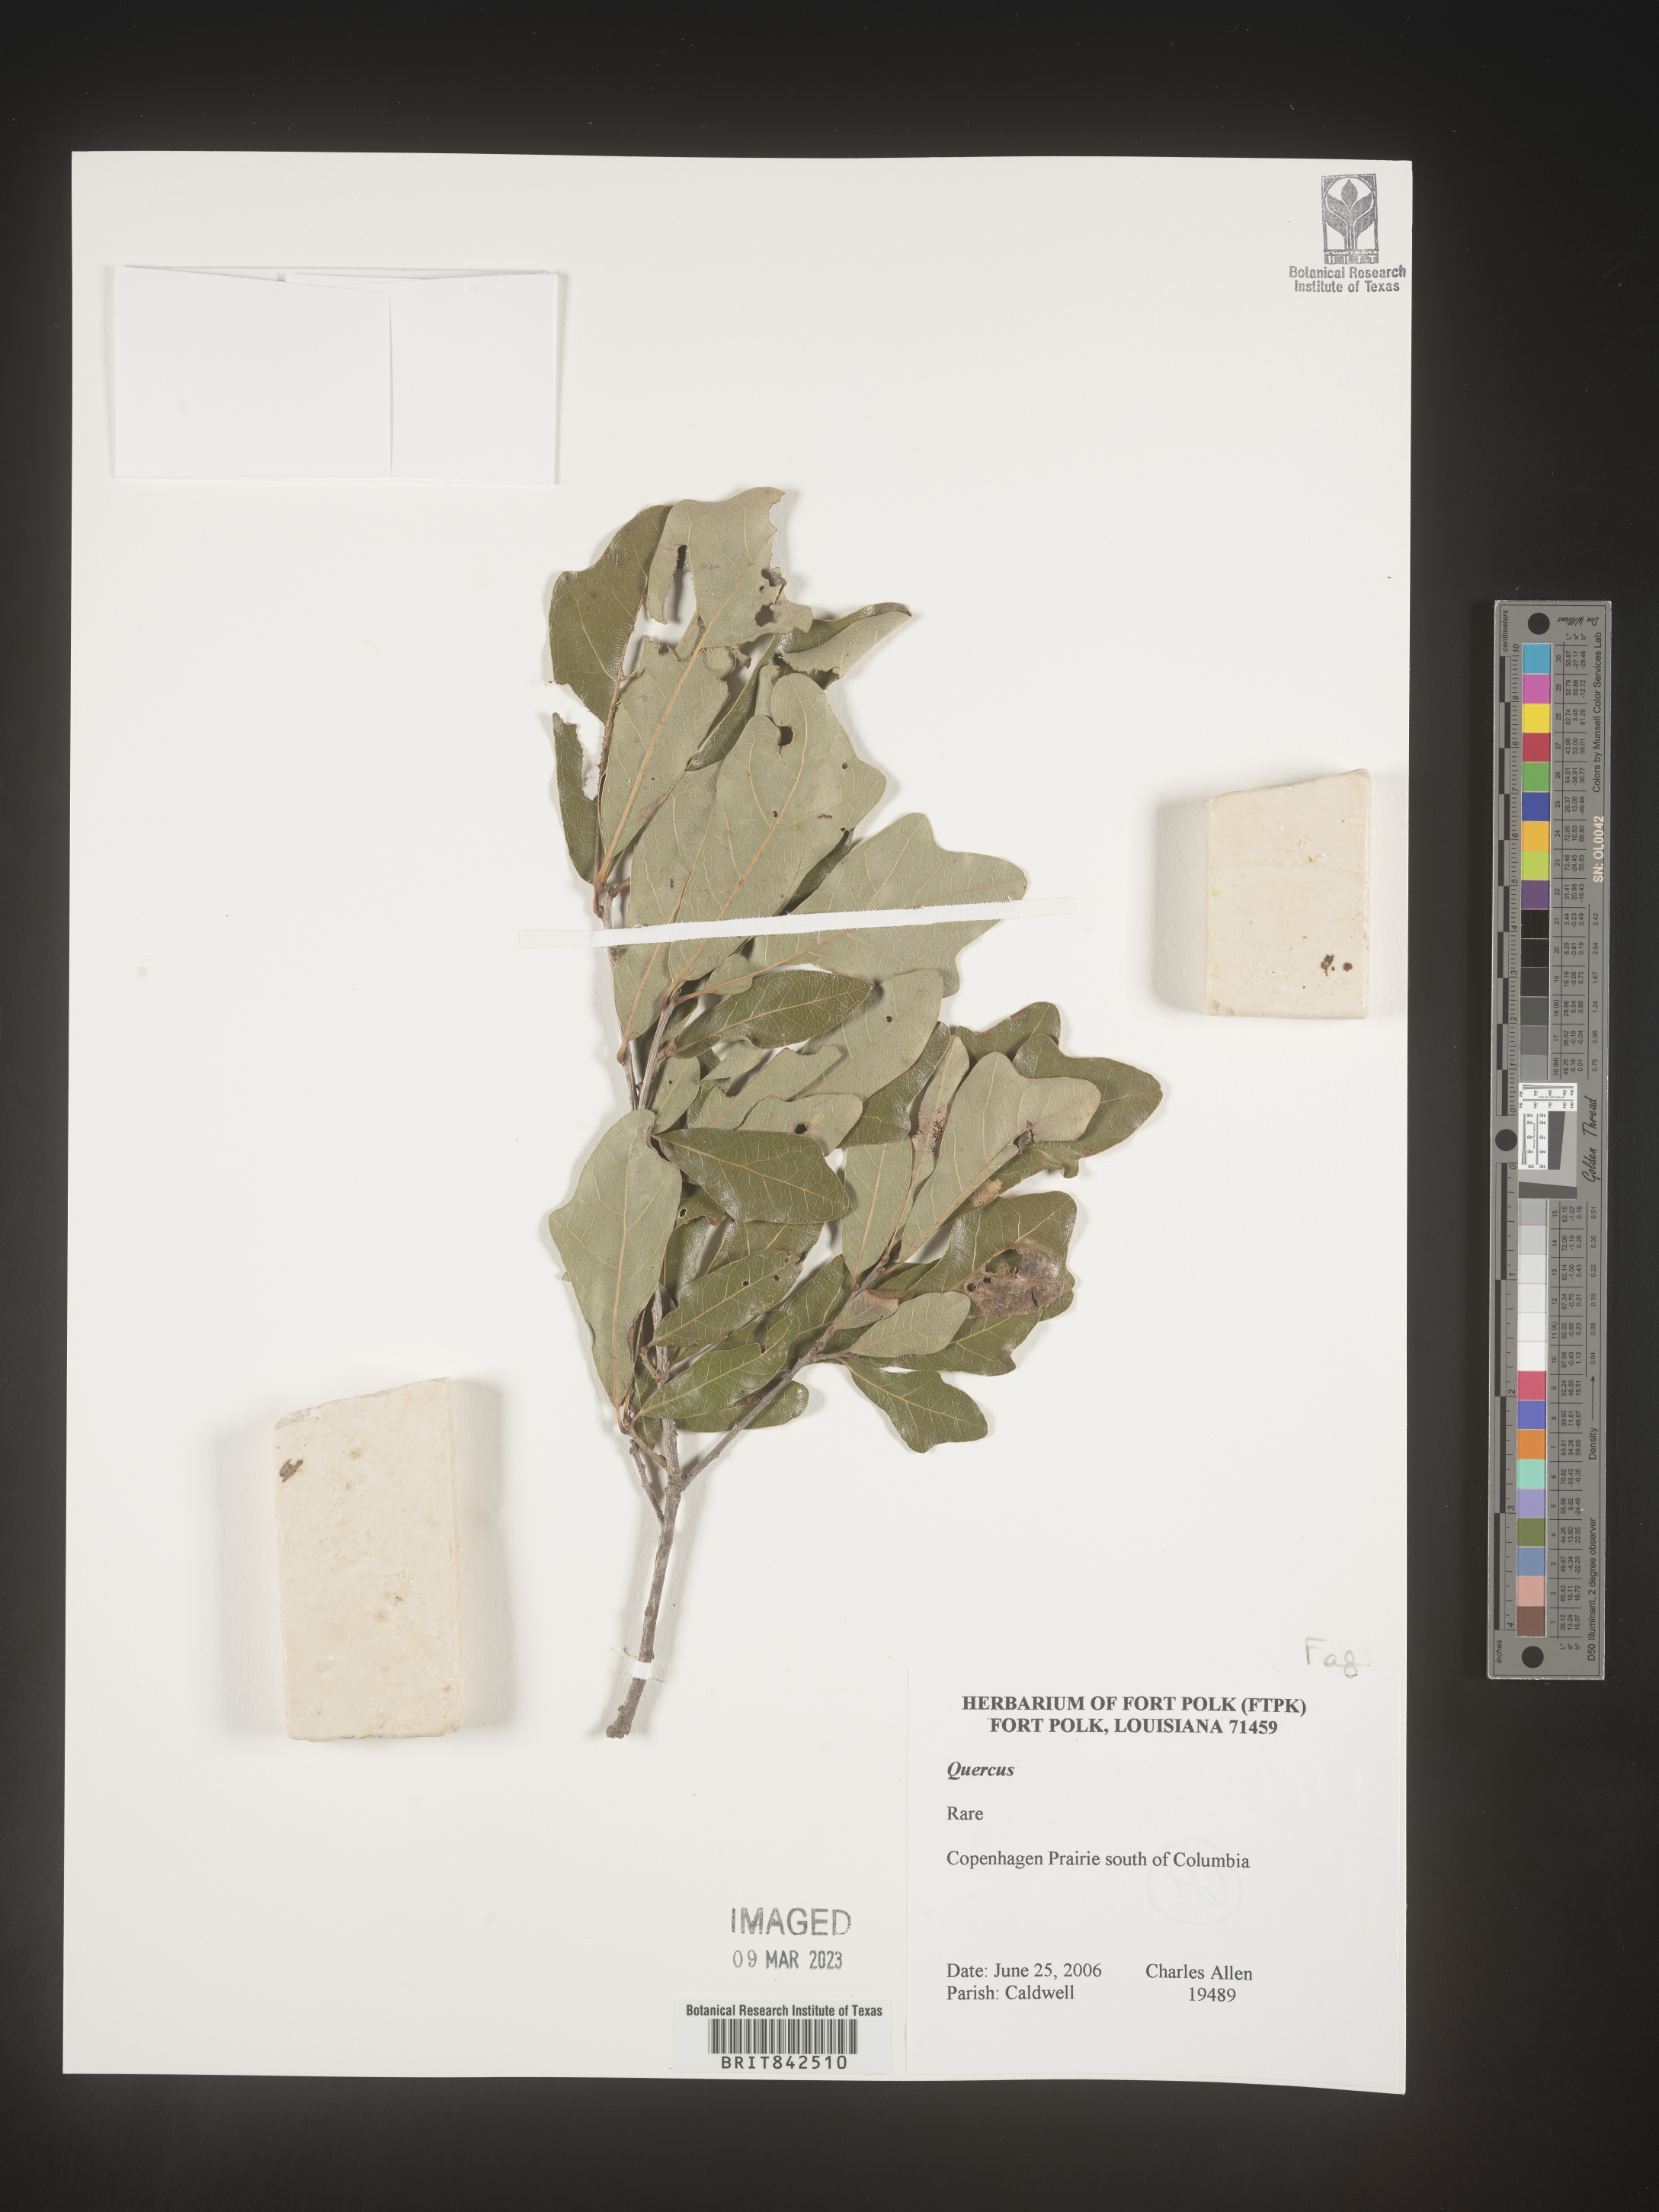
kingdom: Plantae
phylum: Tracheophyta
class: Magnoliopsida
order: Fagales
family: Fagaceae
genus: Quercus
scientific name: Quercus
